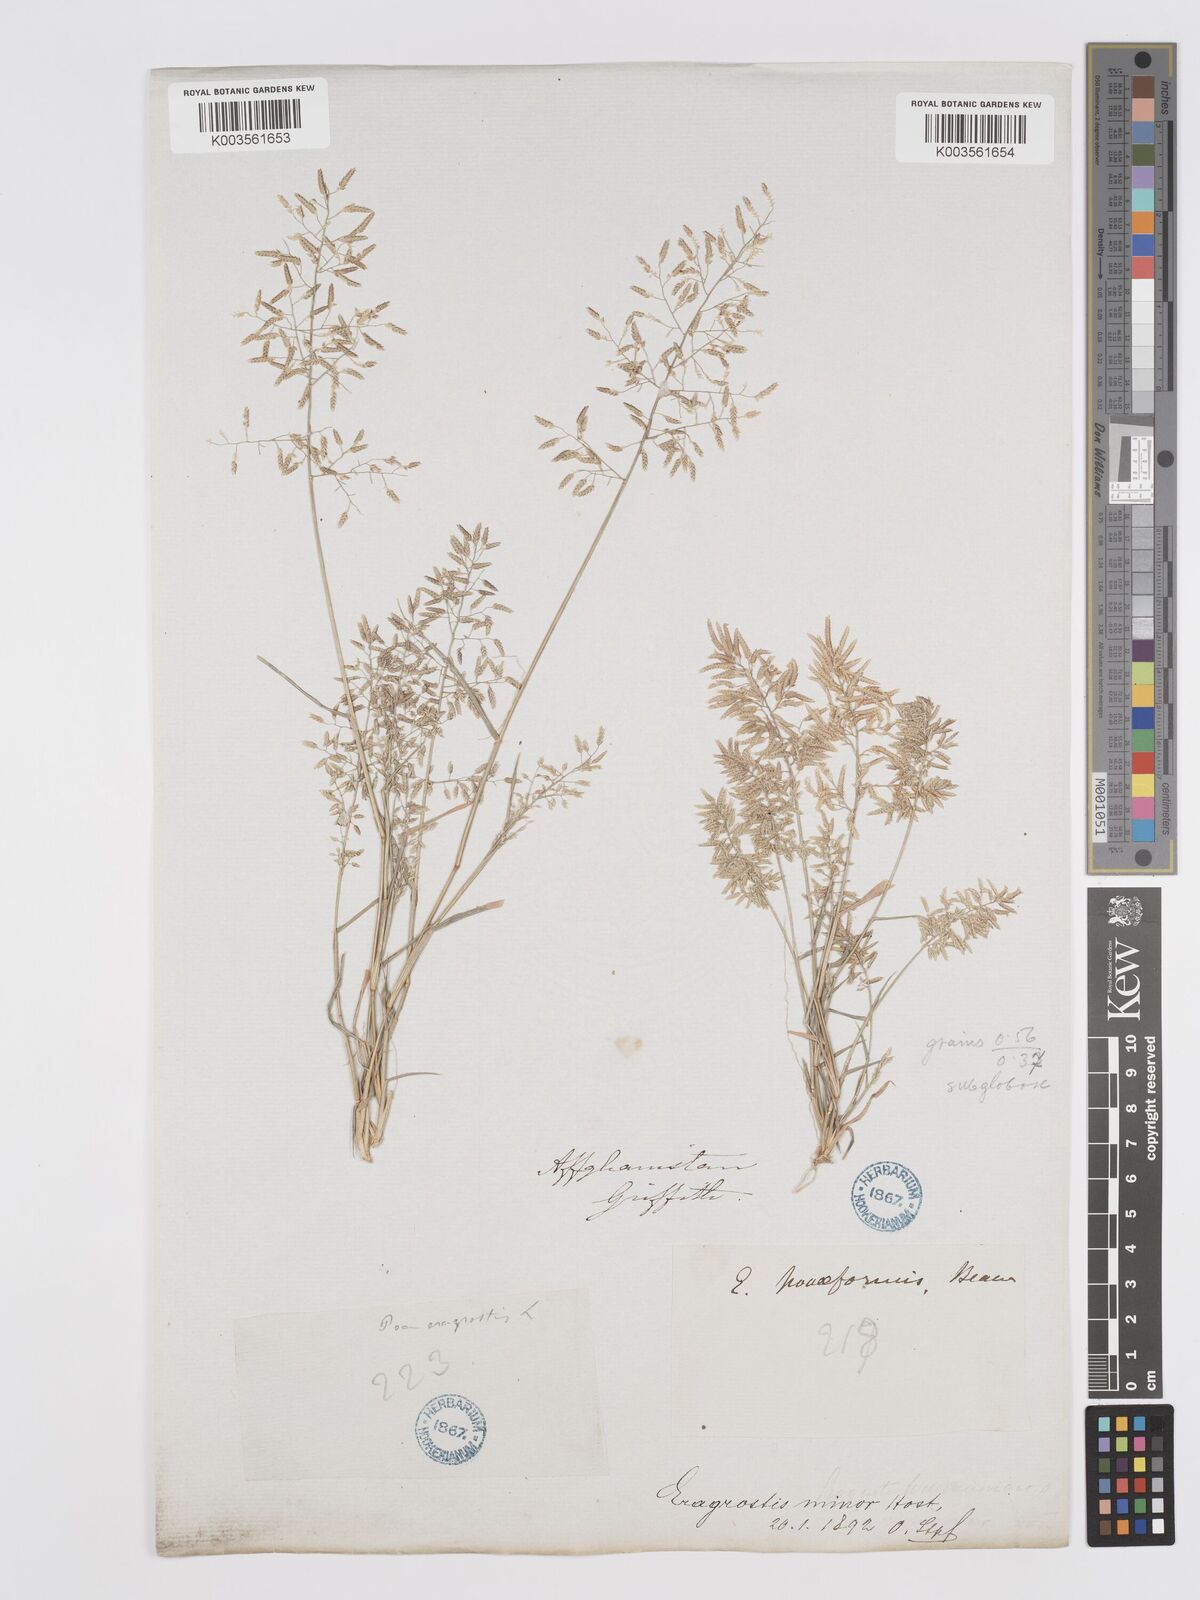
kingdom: Plantae
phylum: Tracheophyta
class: Liliopsida
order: Poales
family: Poaceae
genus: Eragrostis
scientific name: Eragrostis minor
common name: Small love-grass
